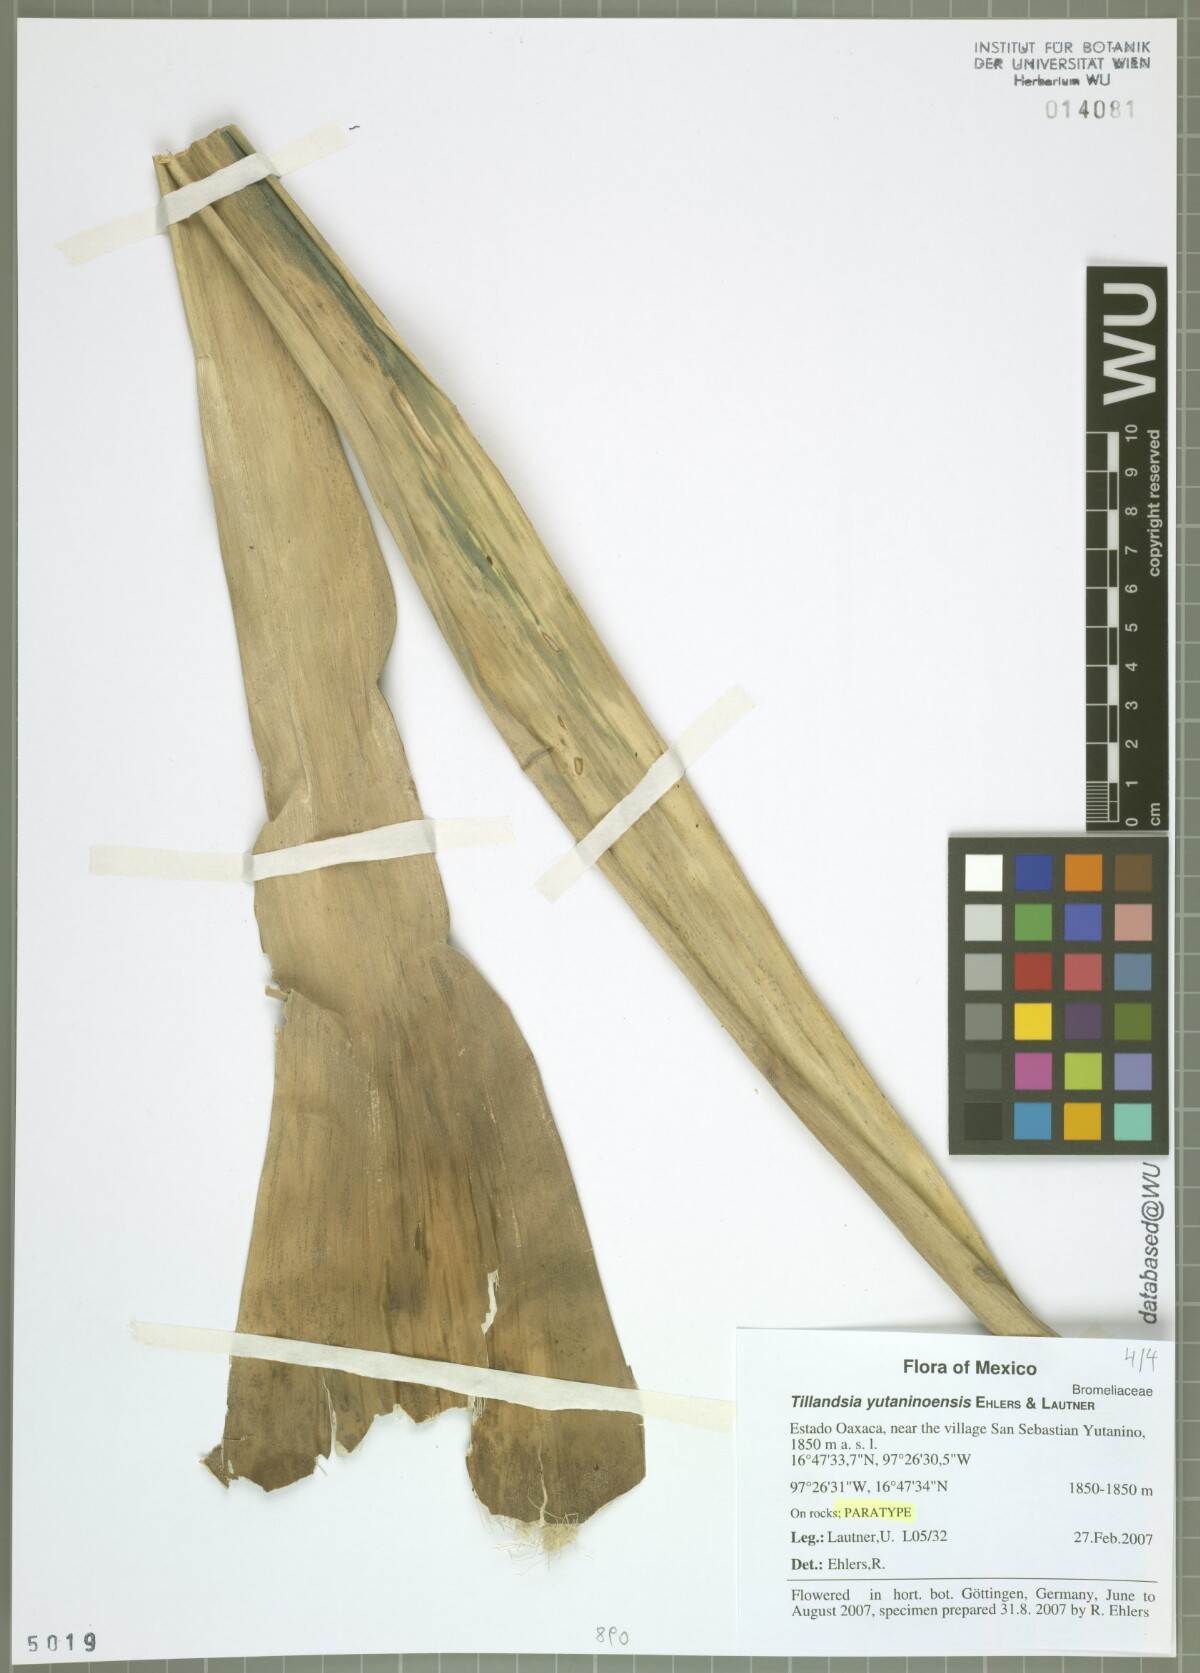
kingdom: Plantae
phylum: Tracheophyta
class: Liliopsida
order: Poales
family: Bromeliaceae
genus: Tillandsia
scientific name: Tillandsia yutaninoensis
